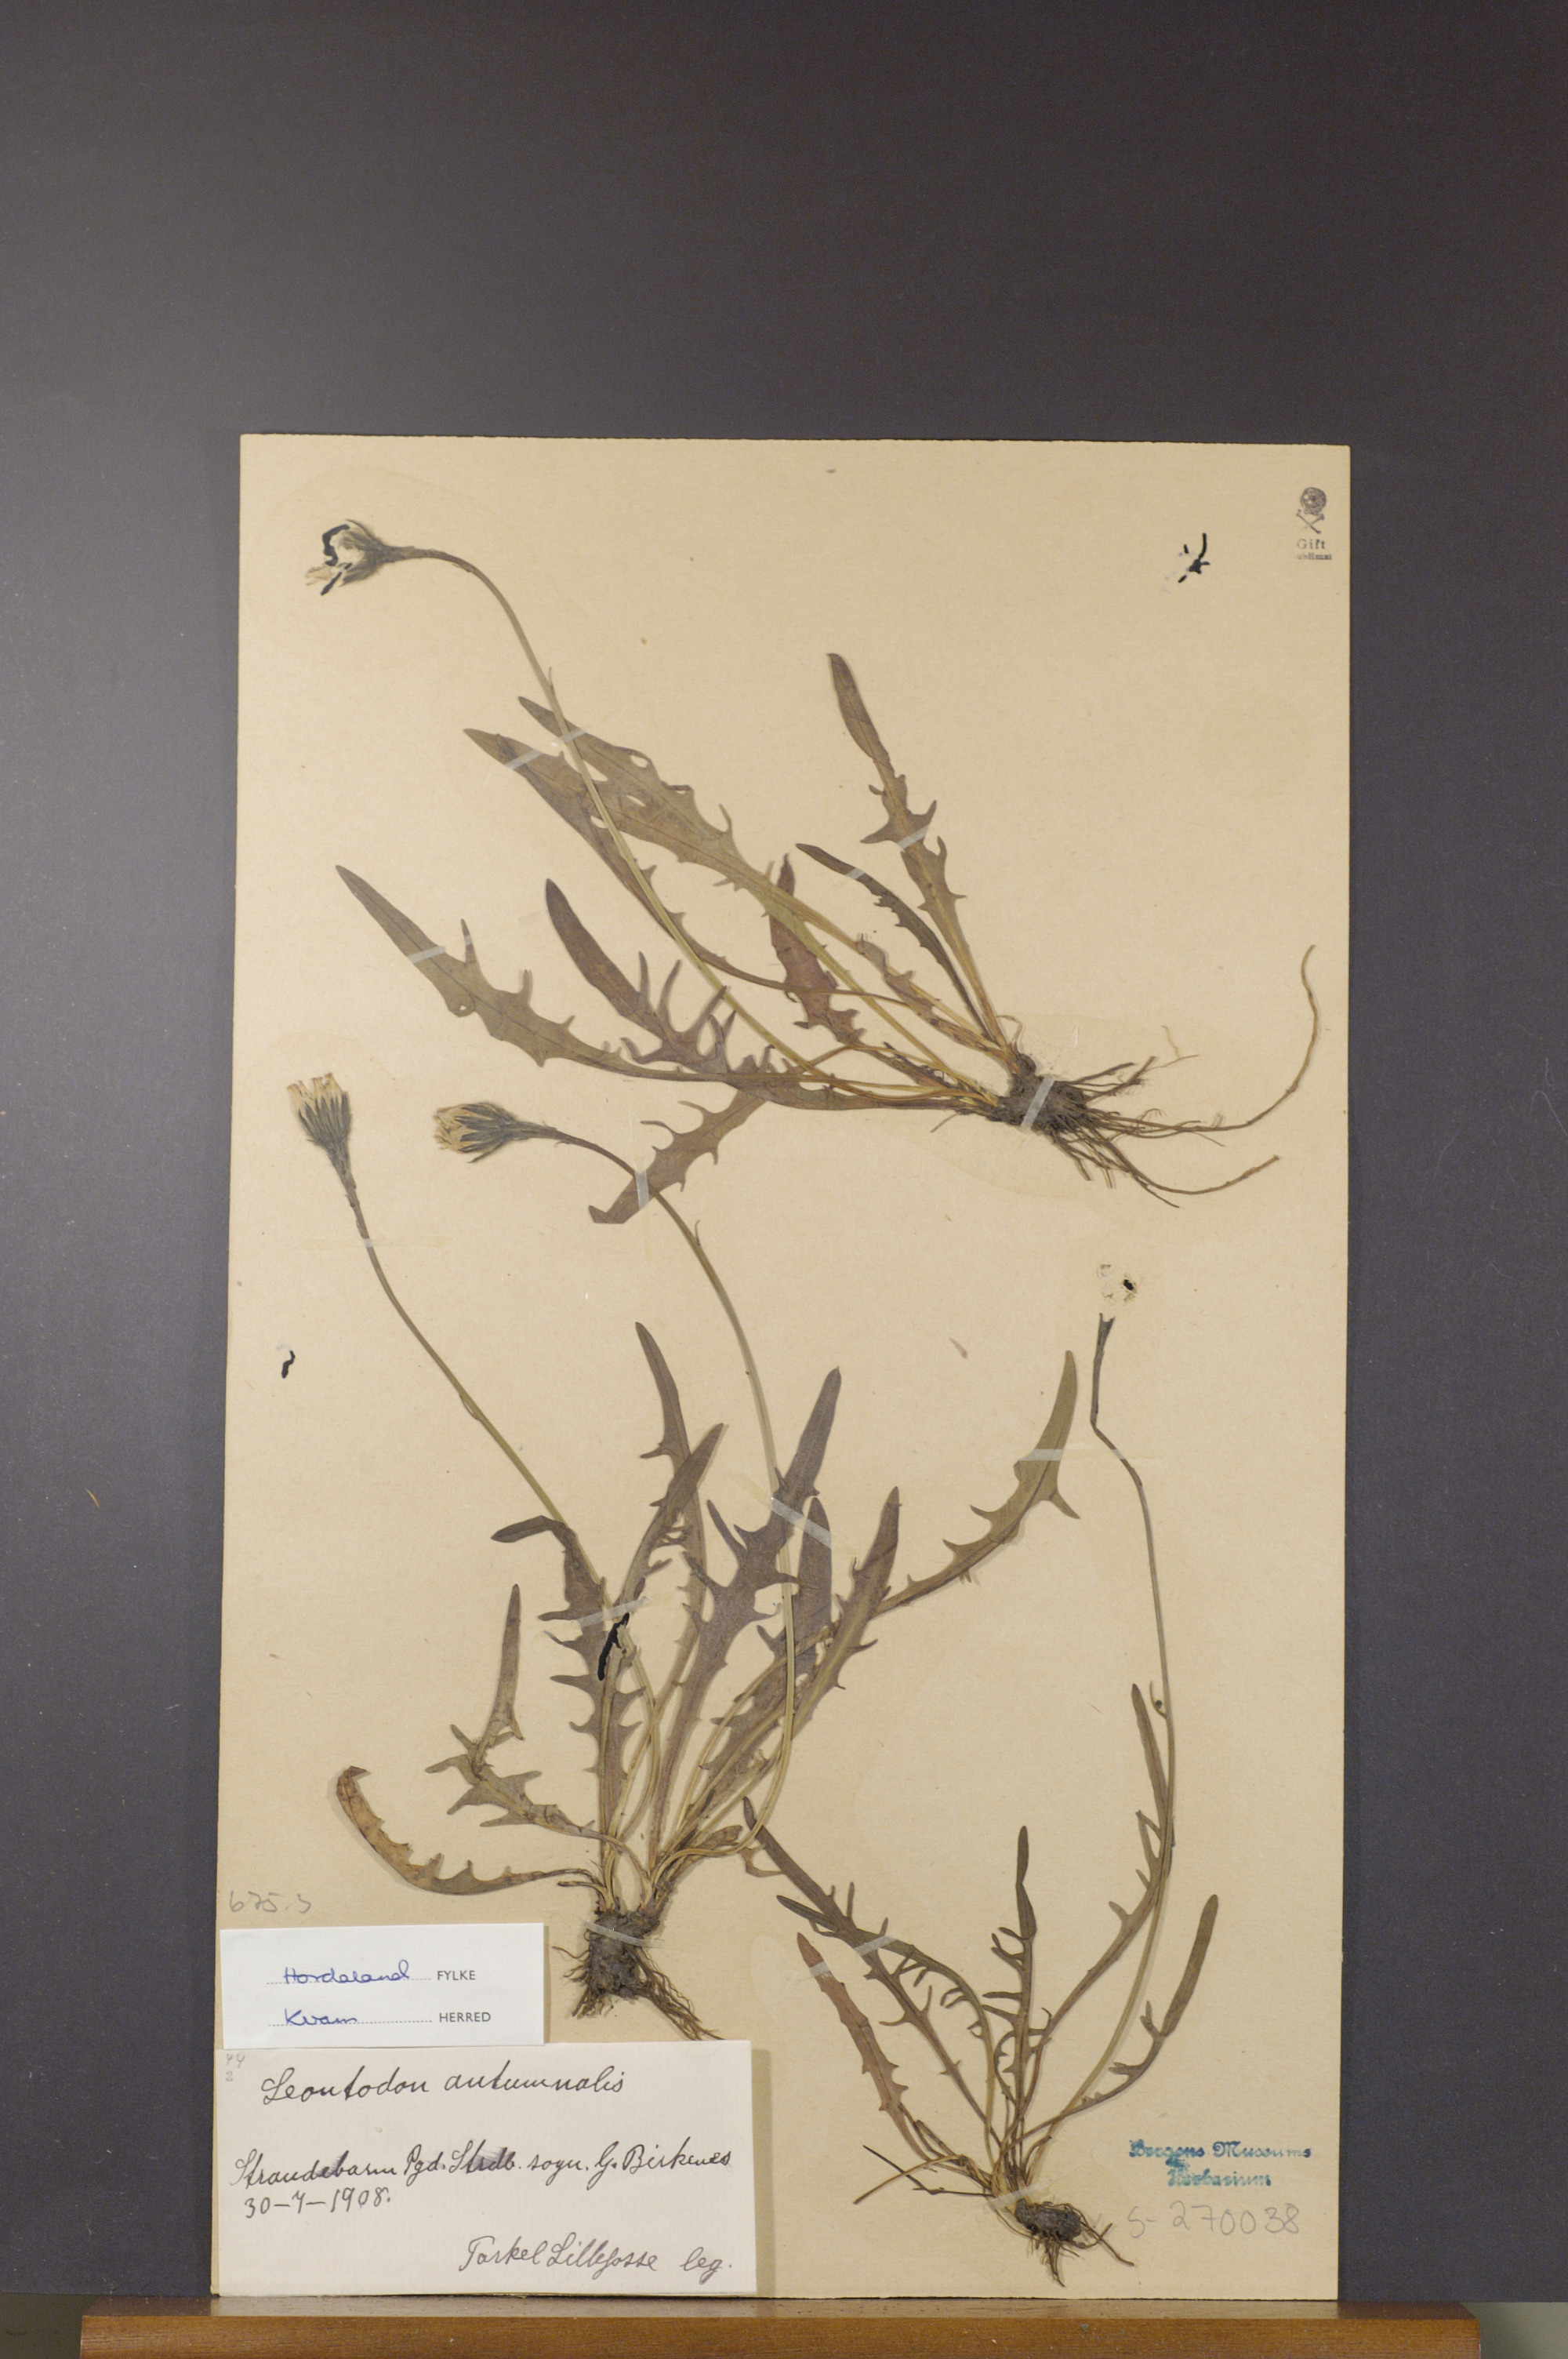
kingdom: Plantae
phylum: Tracheophyta
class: Magnoliopsida
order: Asterales
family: Asteraceae
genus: Scorzoneroides
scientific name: Scorzoneroides autumnalis
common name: Autumn hawkbit
